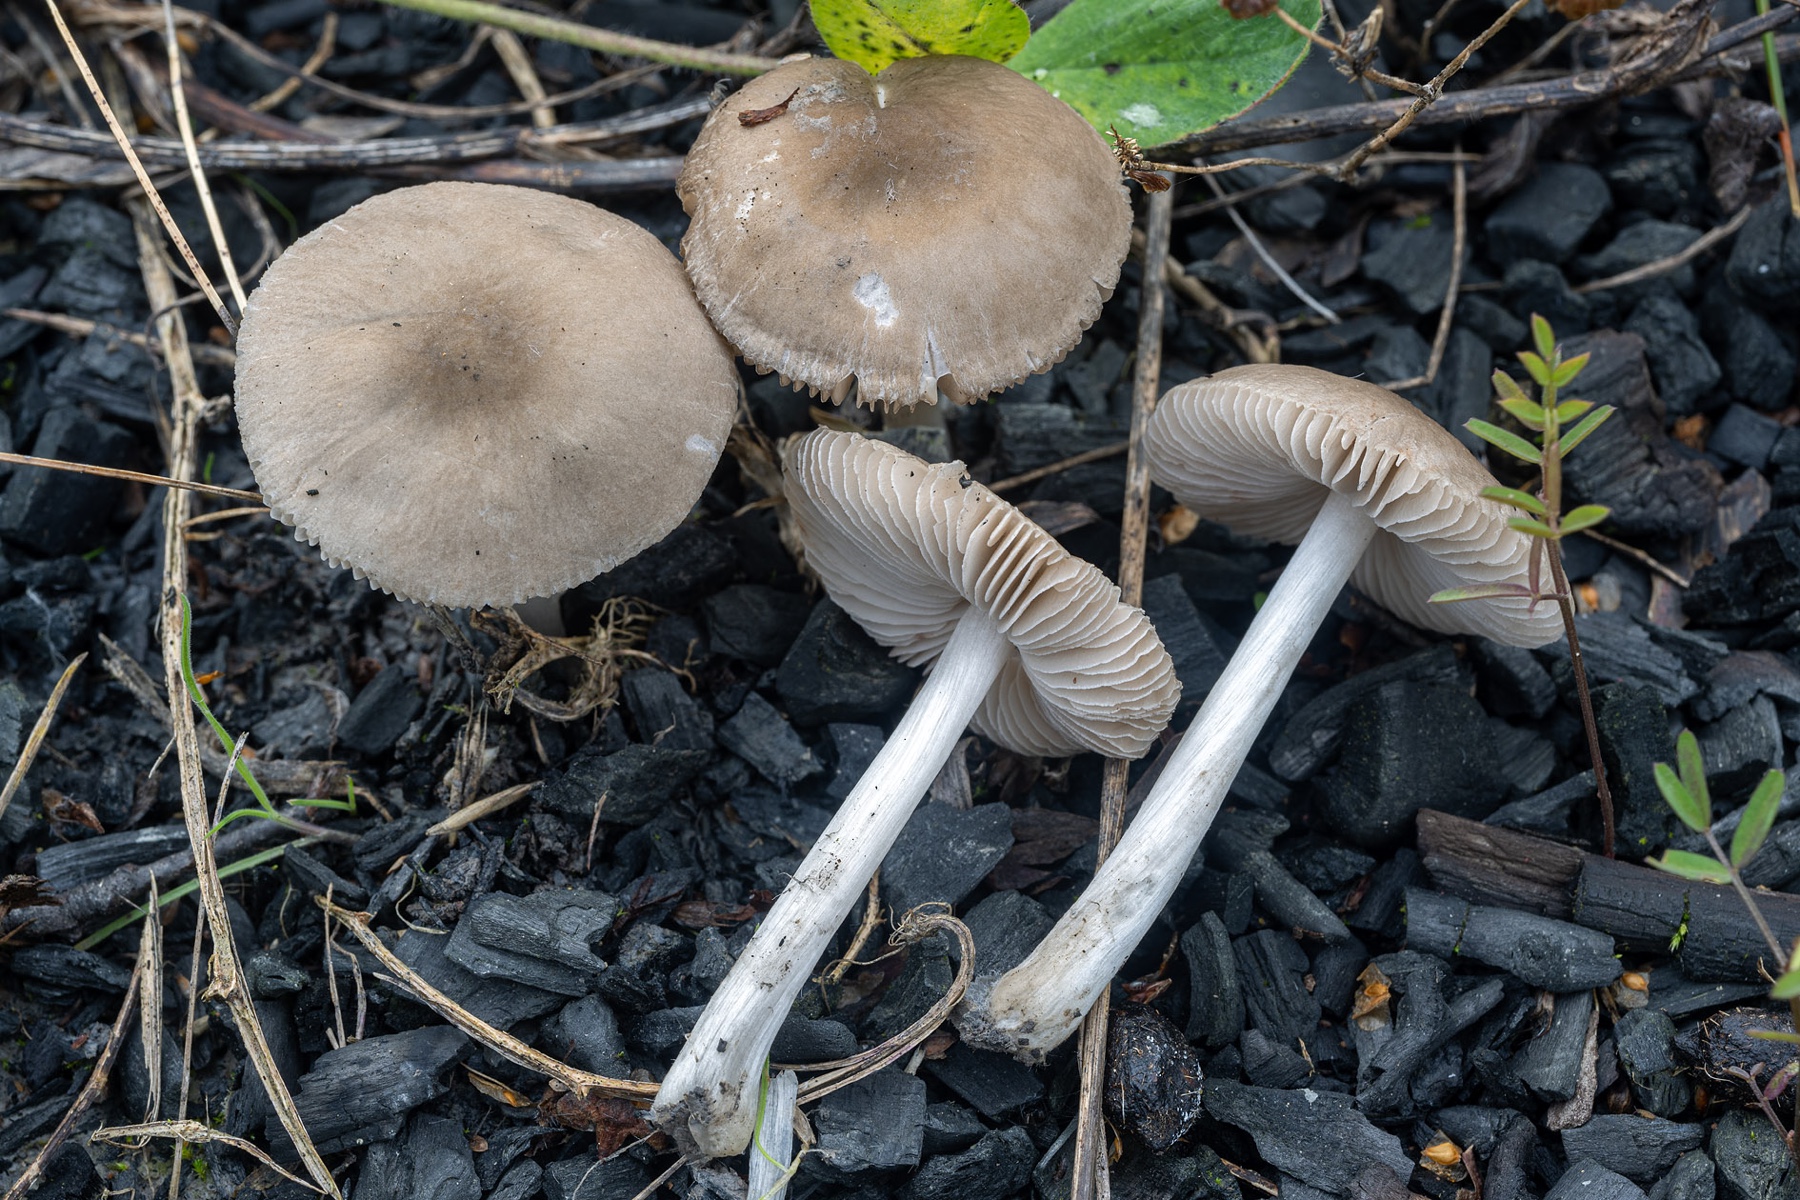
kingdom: Fungi
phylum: Basidiomycota
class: Agaricomycetes
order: Agaricales
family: Pluteaceae
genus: Pluteus
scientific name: Pluteus cinereofuscus
